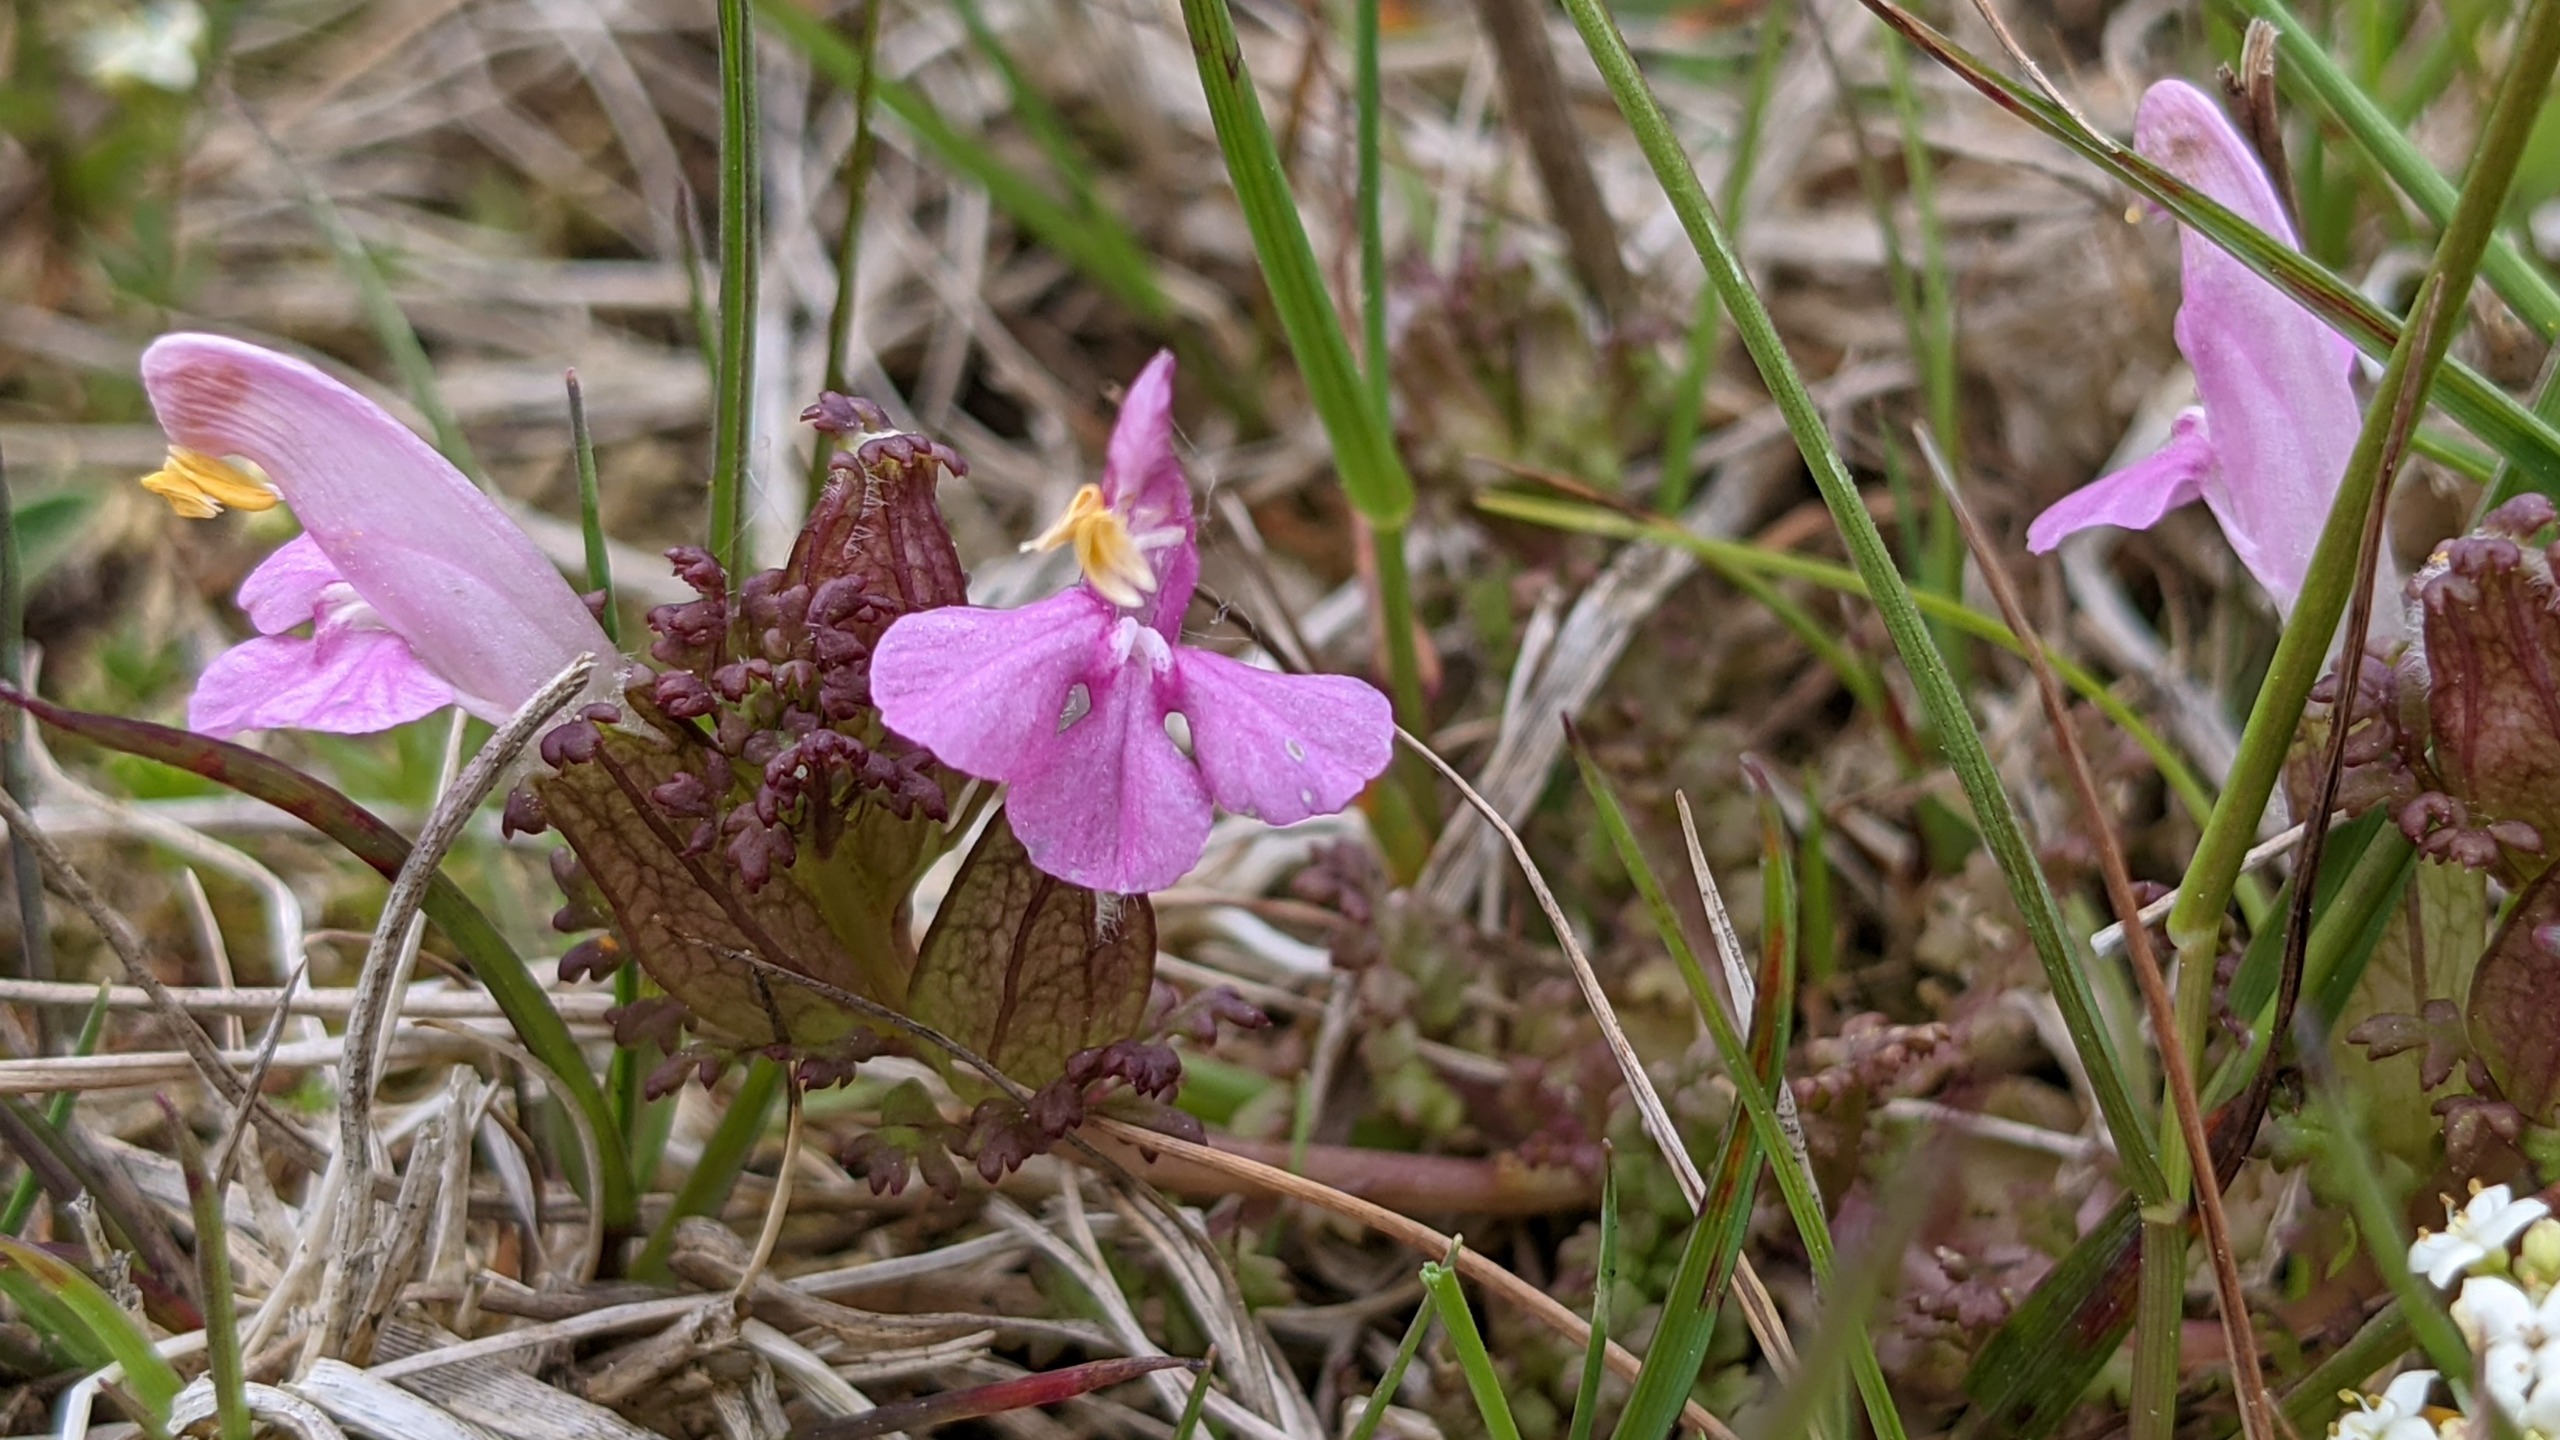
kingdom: Plantae
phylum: Tracheophyta
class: Magnoliopsida
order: Lamiales
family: Orobanchaceae
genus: Pedicularis
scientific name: Pedicularis sylvatica
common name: Mose-troldurt
